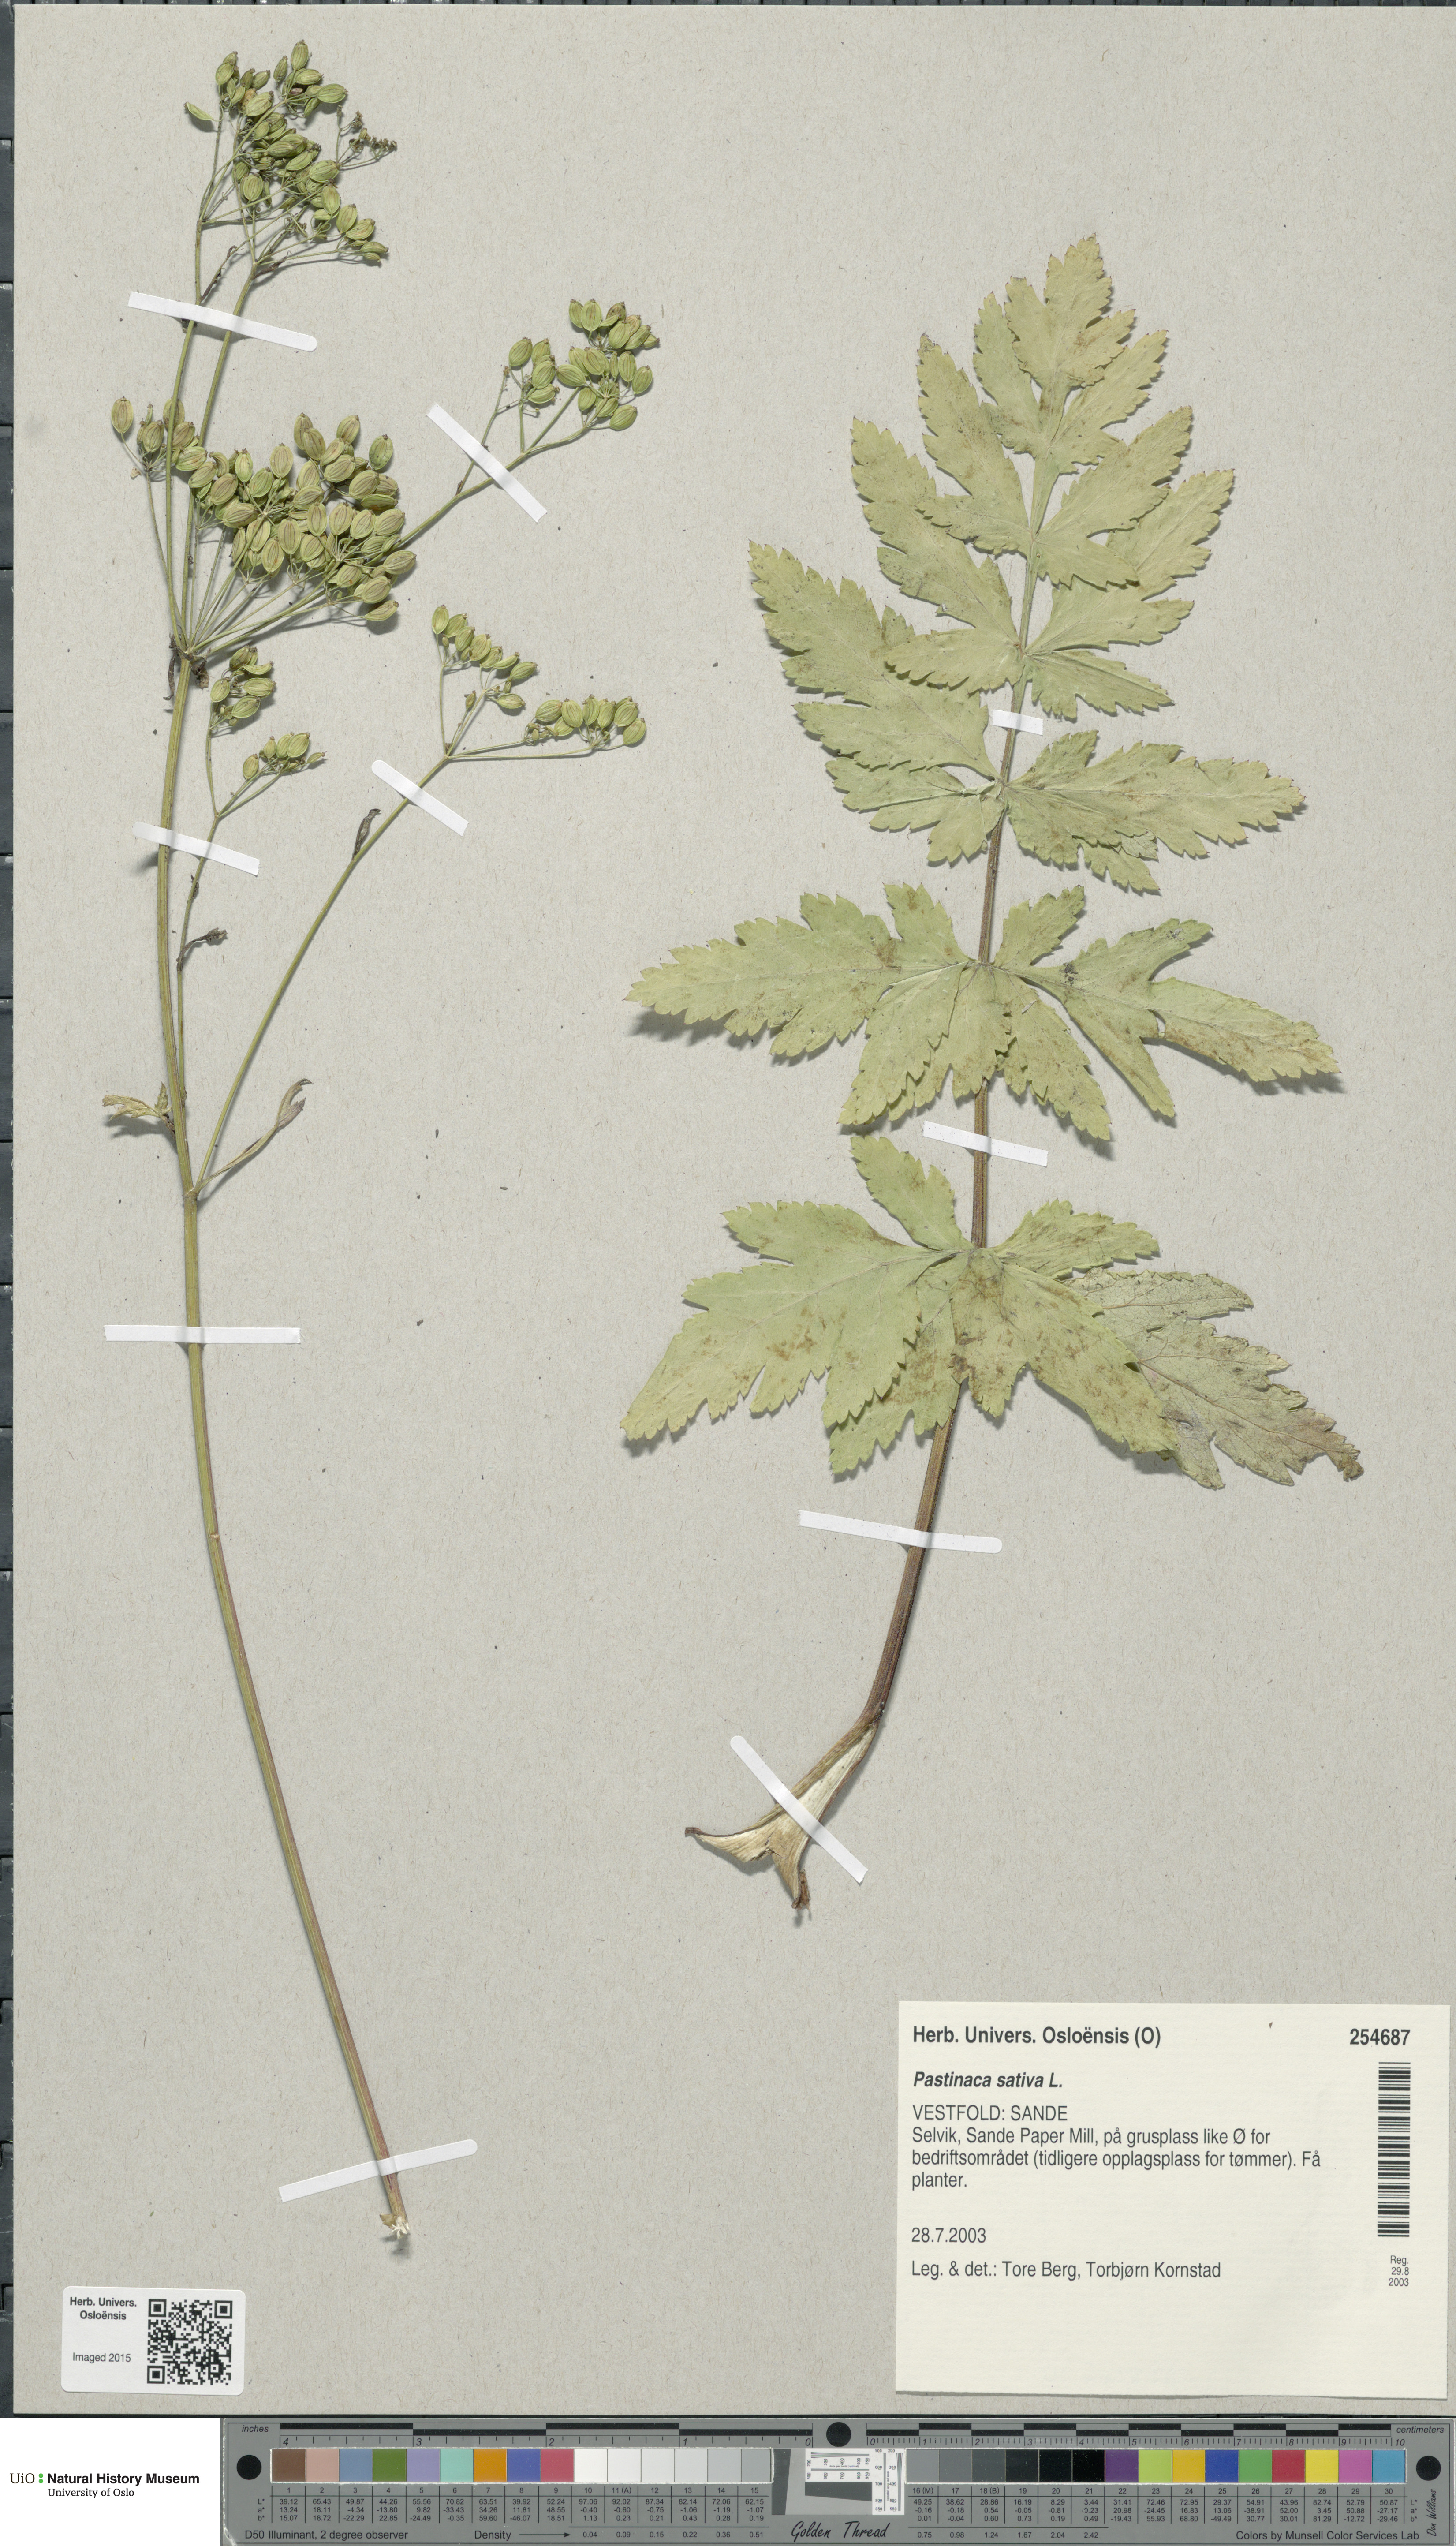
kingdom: Plantae
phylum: Tracheophyta
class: Magnoliopsida
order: Apiales
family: Apiaceae
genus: Pastinaca
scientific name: Pastinaca sativa
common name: Wild parsnip
